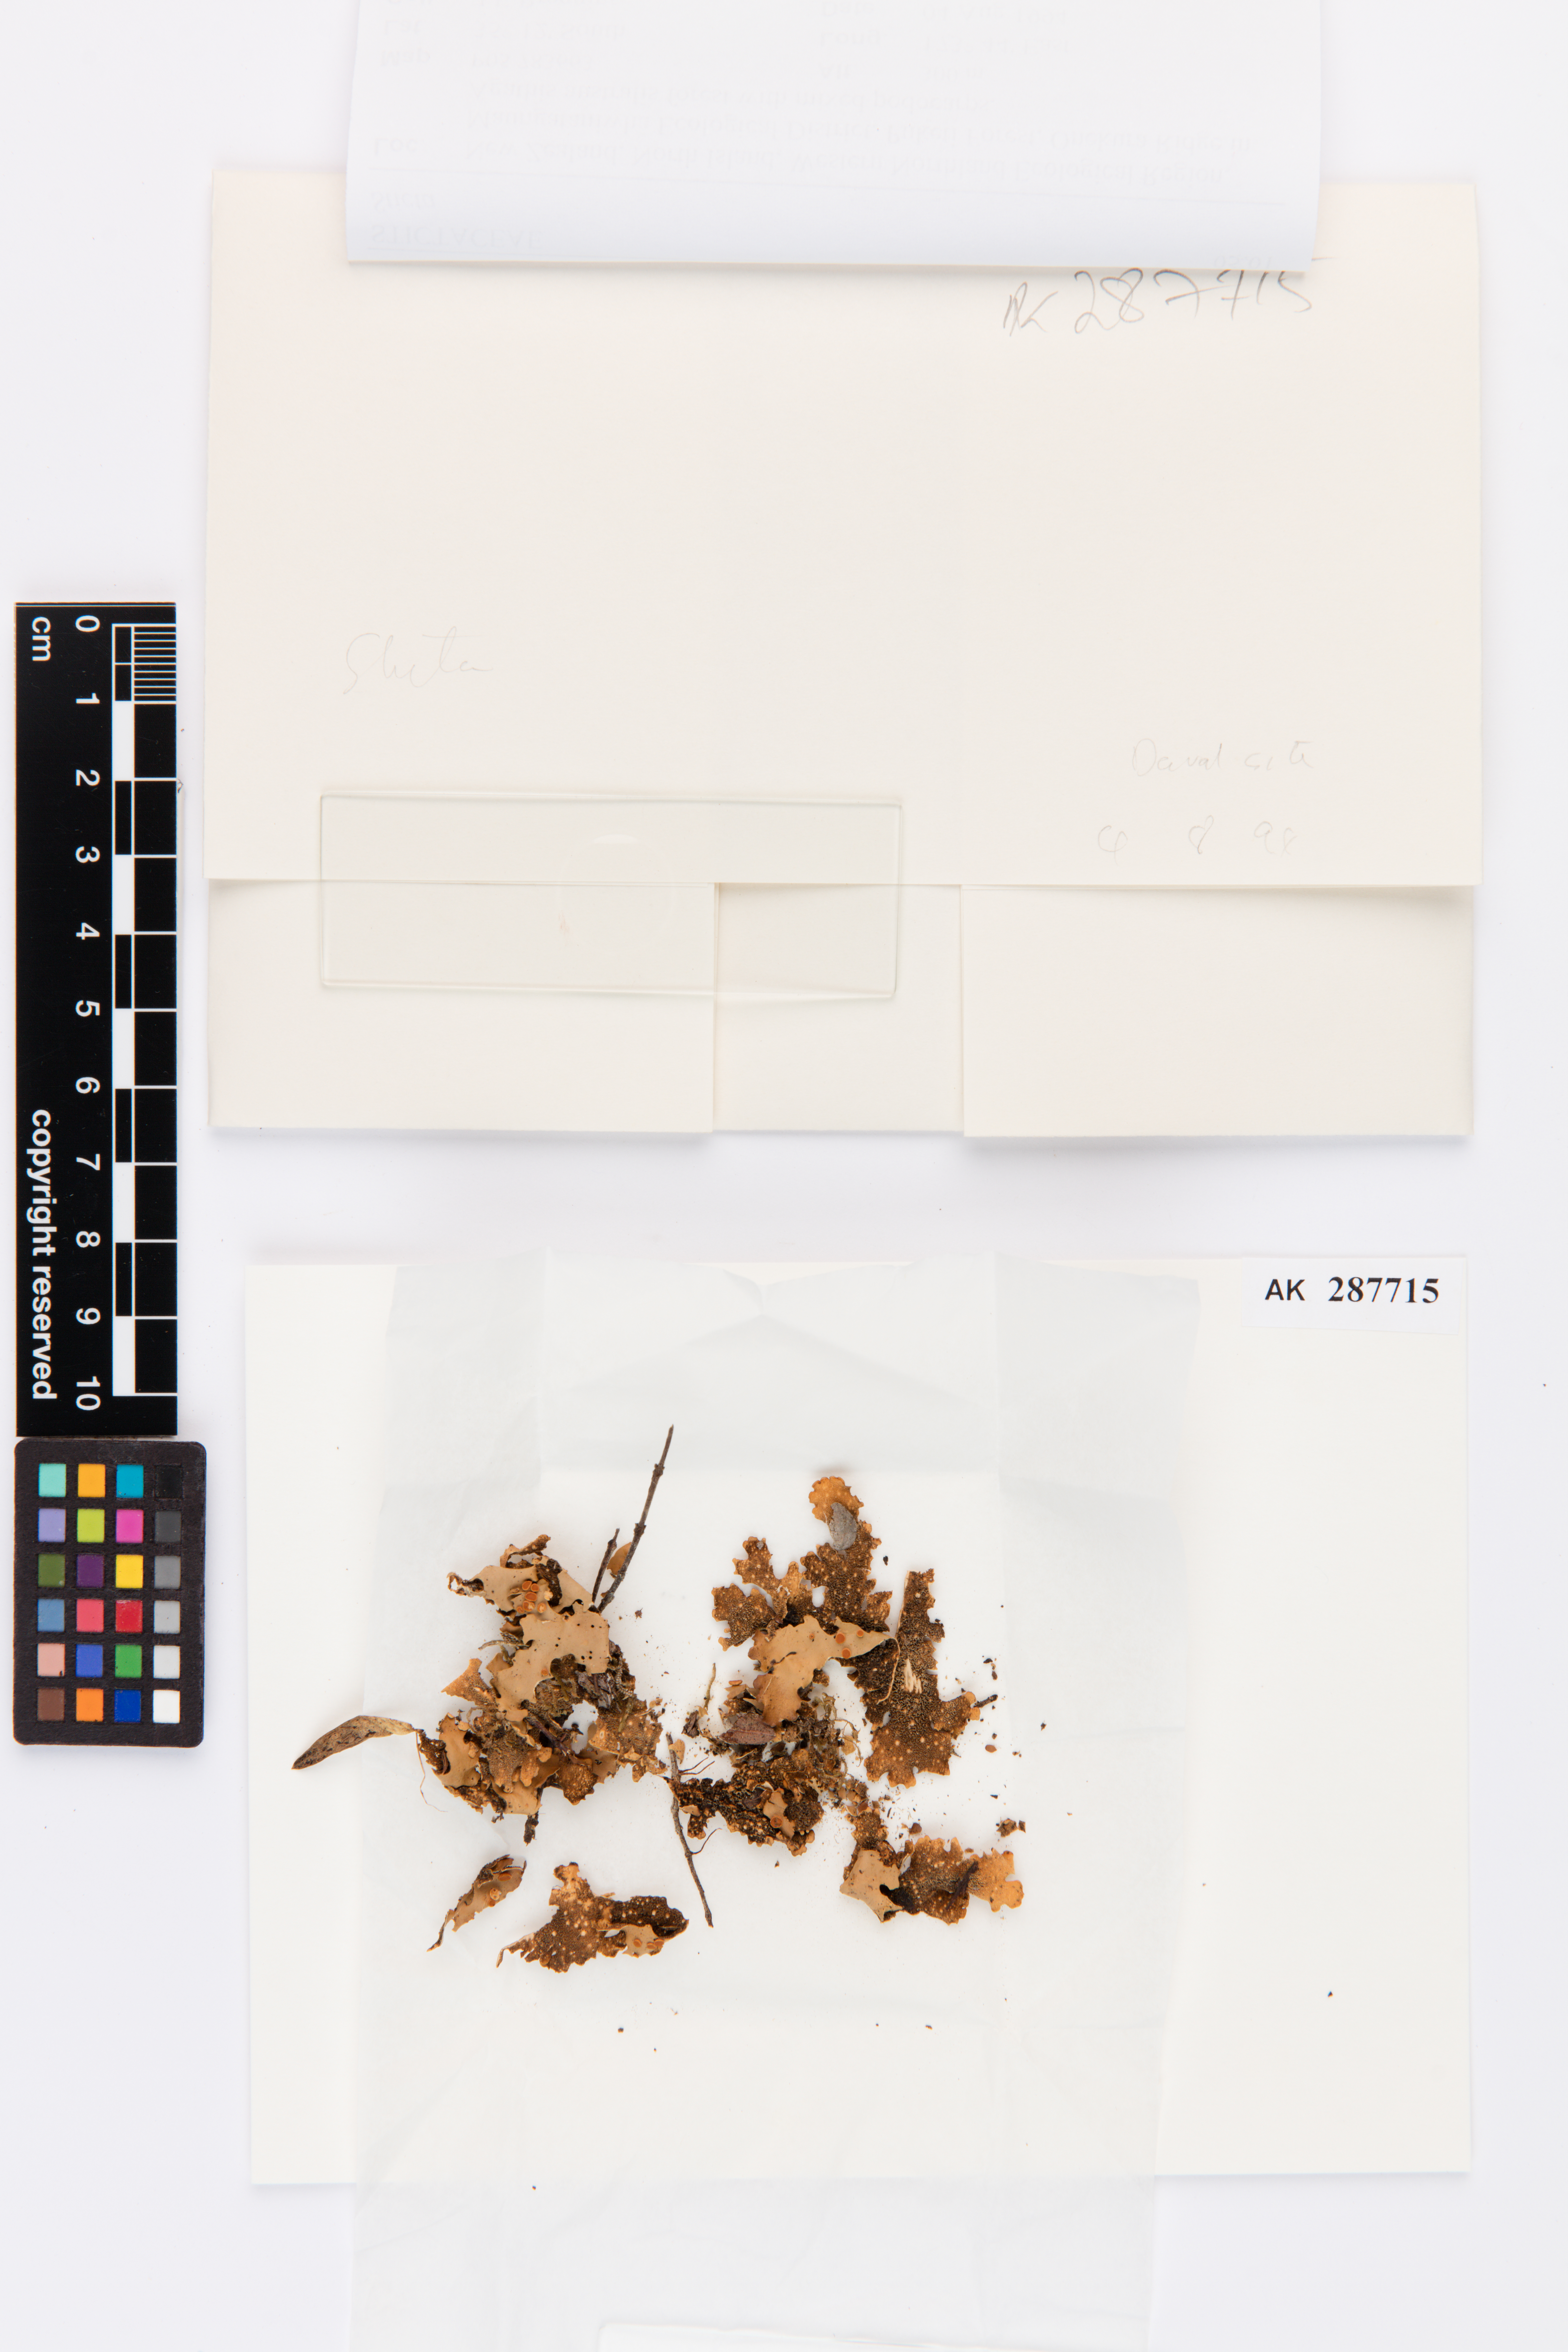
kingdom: Fungi
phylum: Ascomycota
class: Lecanoromycetes
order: Peltigerales
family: Lobariaceae
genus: Sticta
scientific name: Sticta
